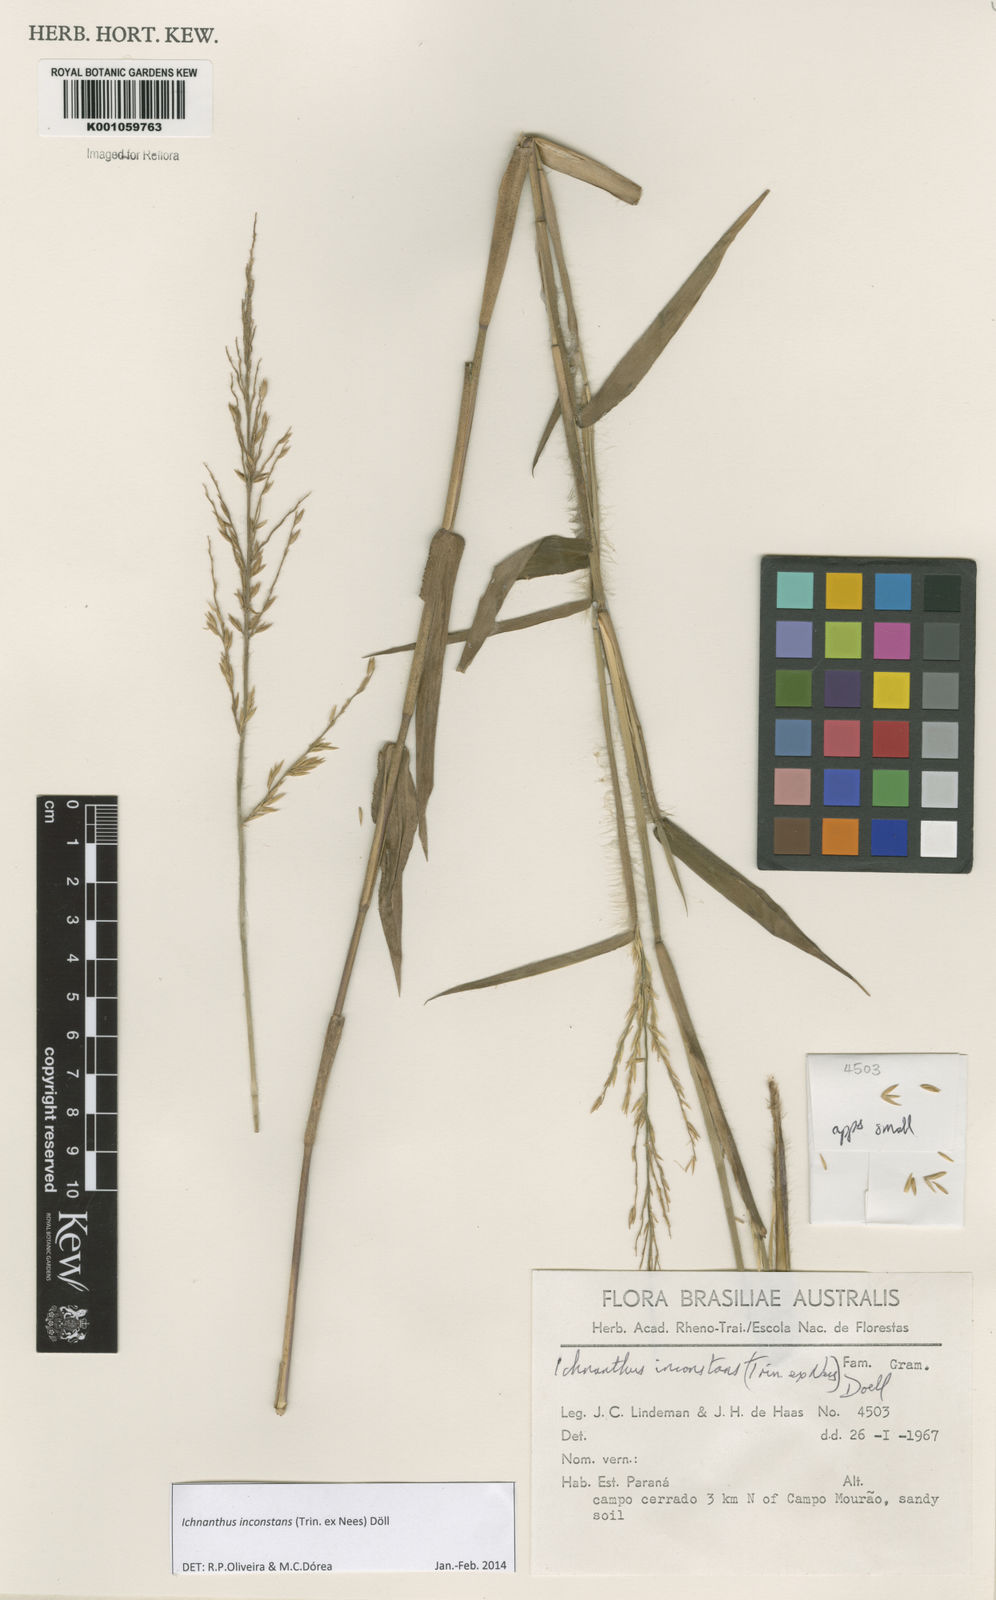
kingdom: Plantae
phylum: Tracheophyta
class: Liliopsida
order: Poales
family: Poaceae
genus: Ichnanthus
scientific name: Ichnanthus
